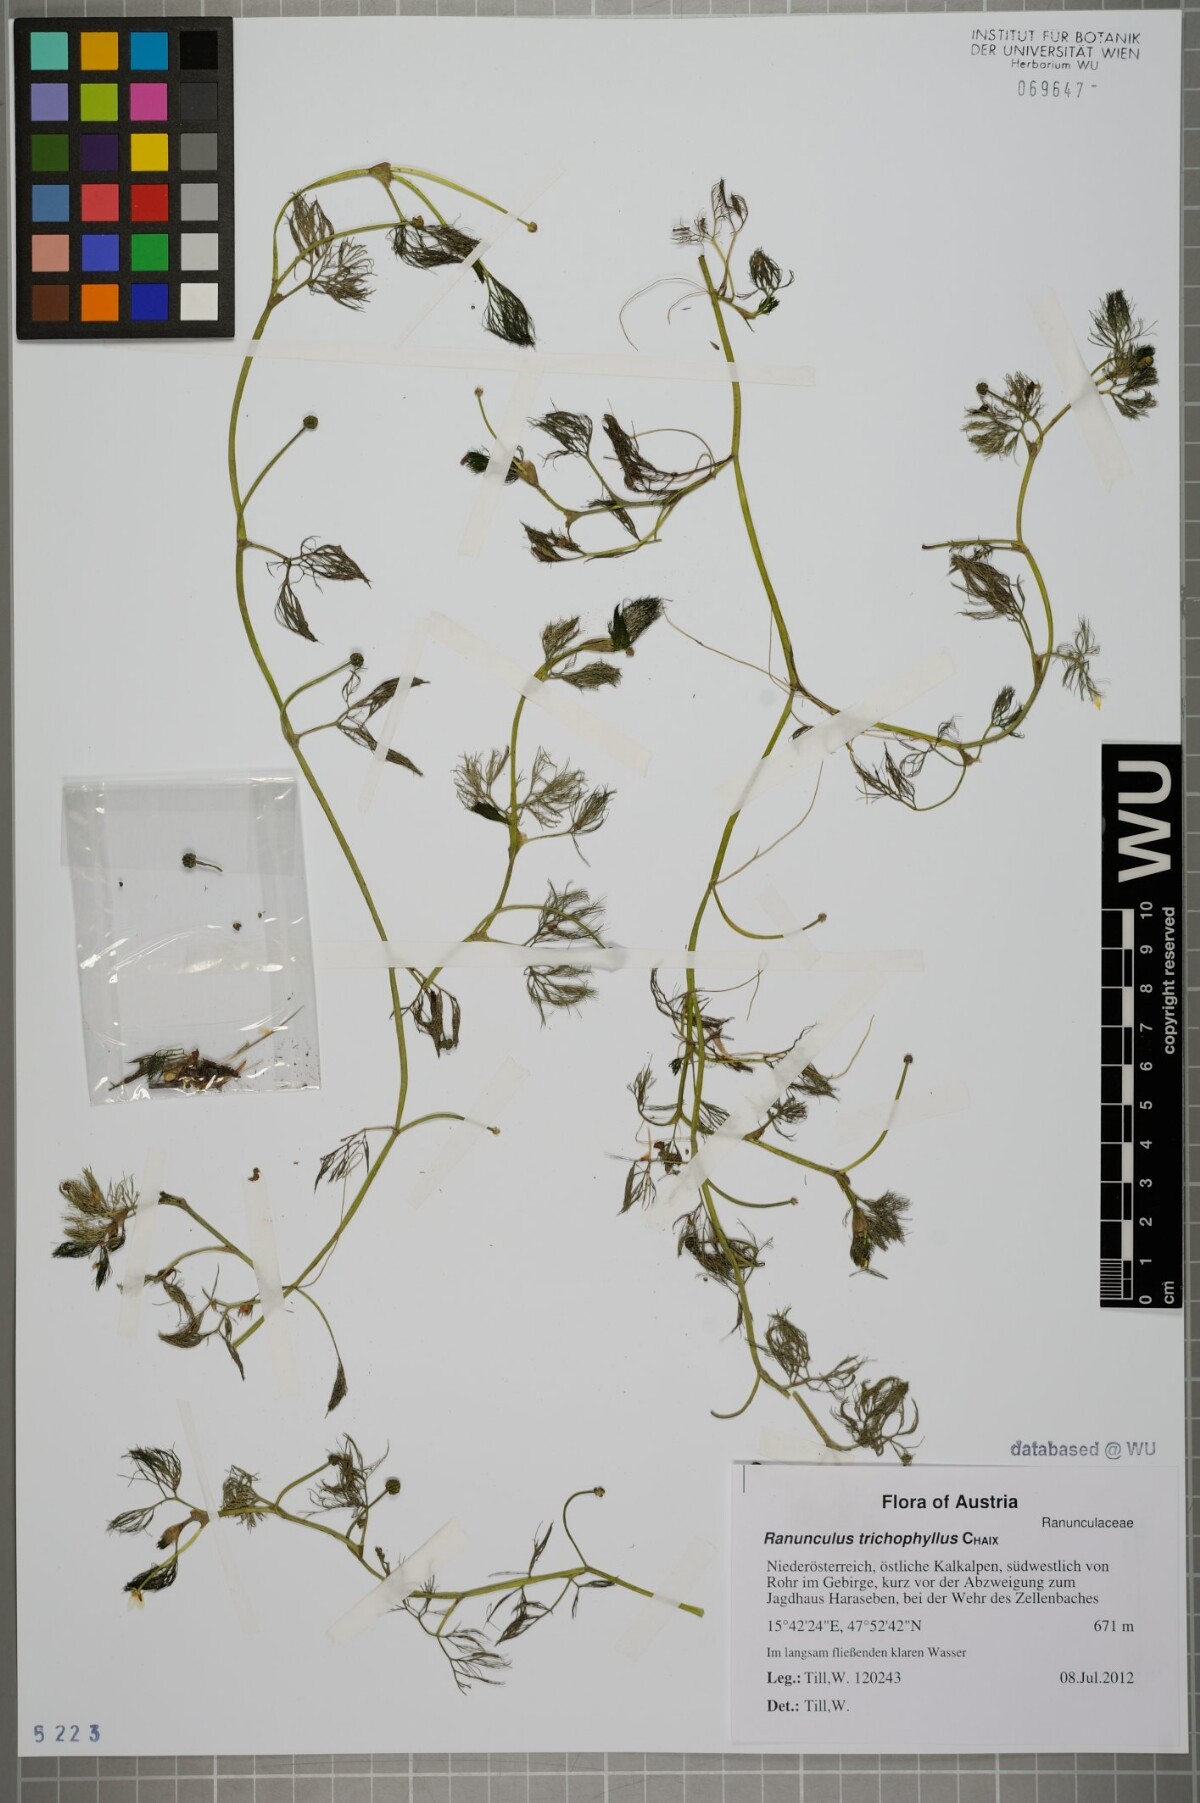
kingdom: Plantae
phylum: Tracheophyta
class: Magnoliopsida
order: Ranunculales
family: Ranunculaceae
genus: Ranunculus
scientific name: Ranunculus trichophyllus
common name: Thread-leaved water-crowfoot
